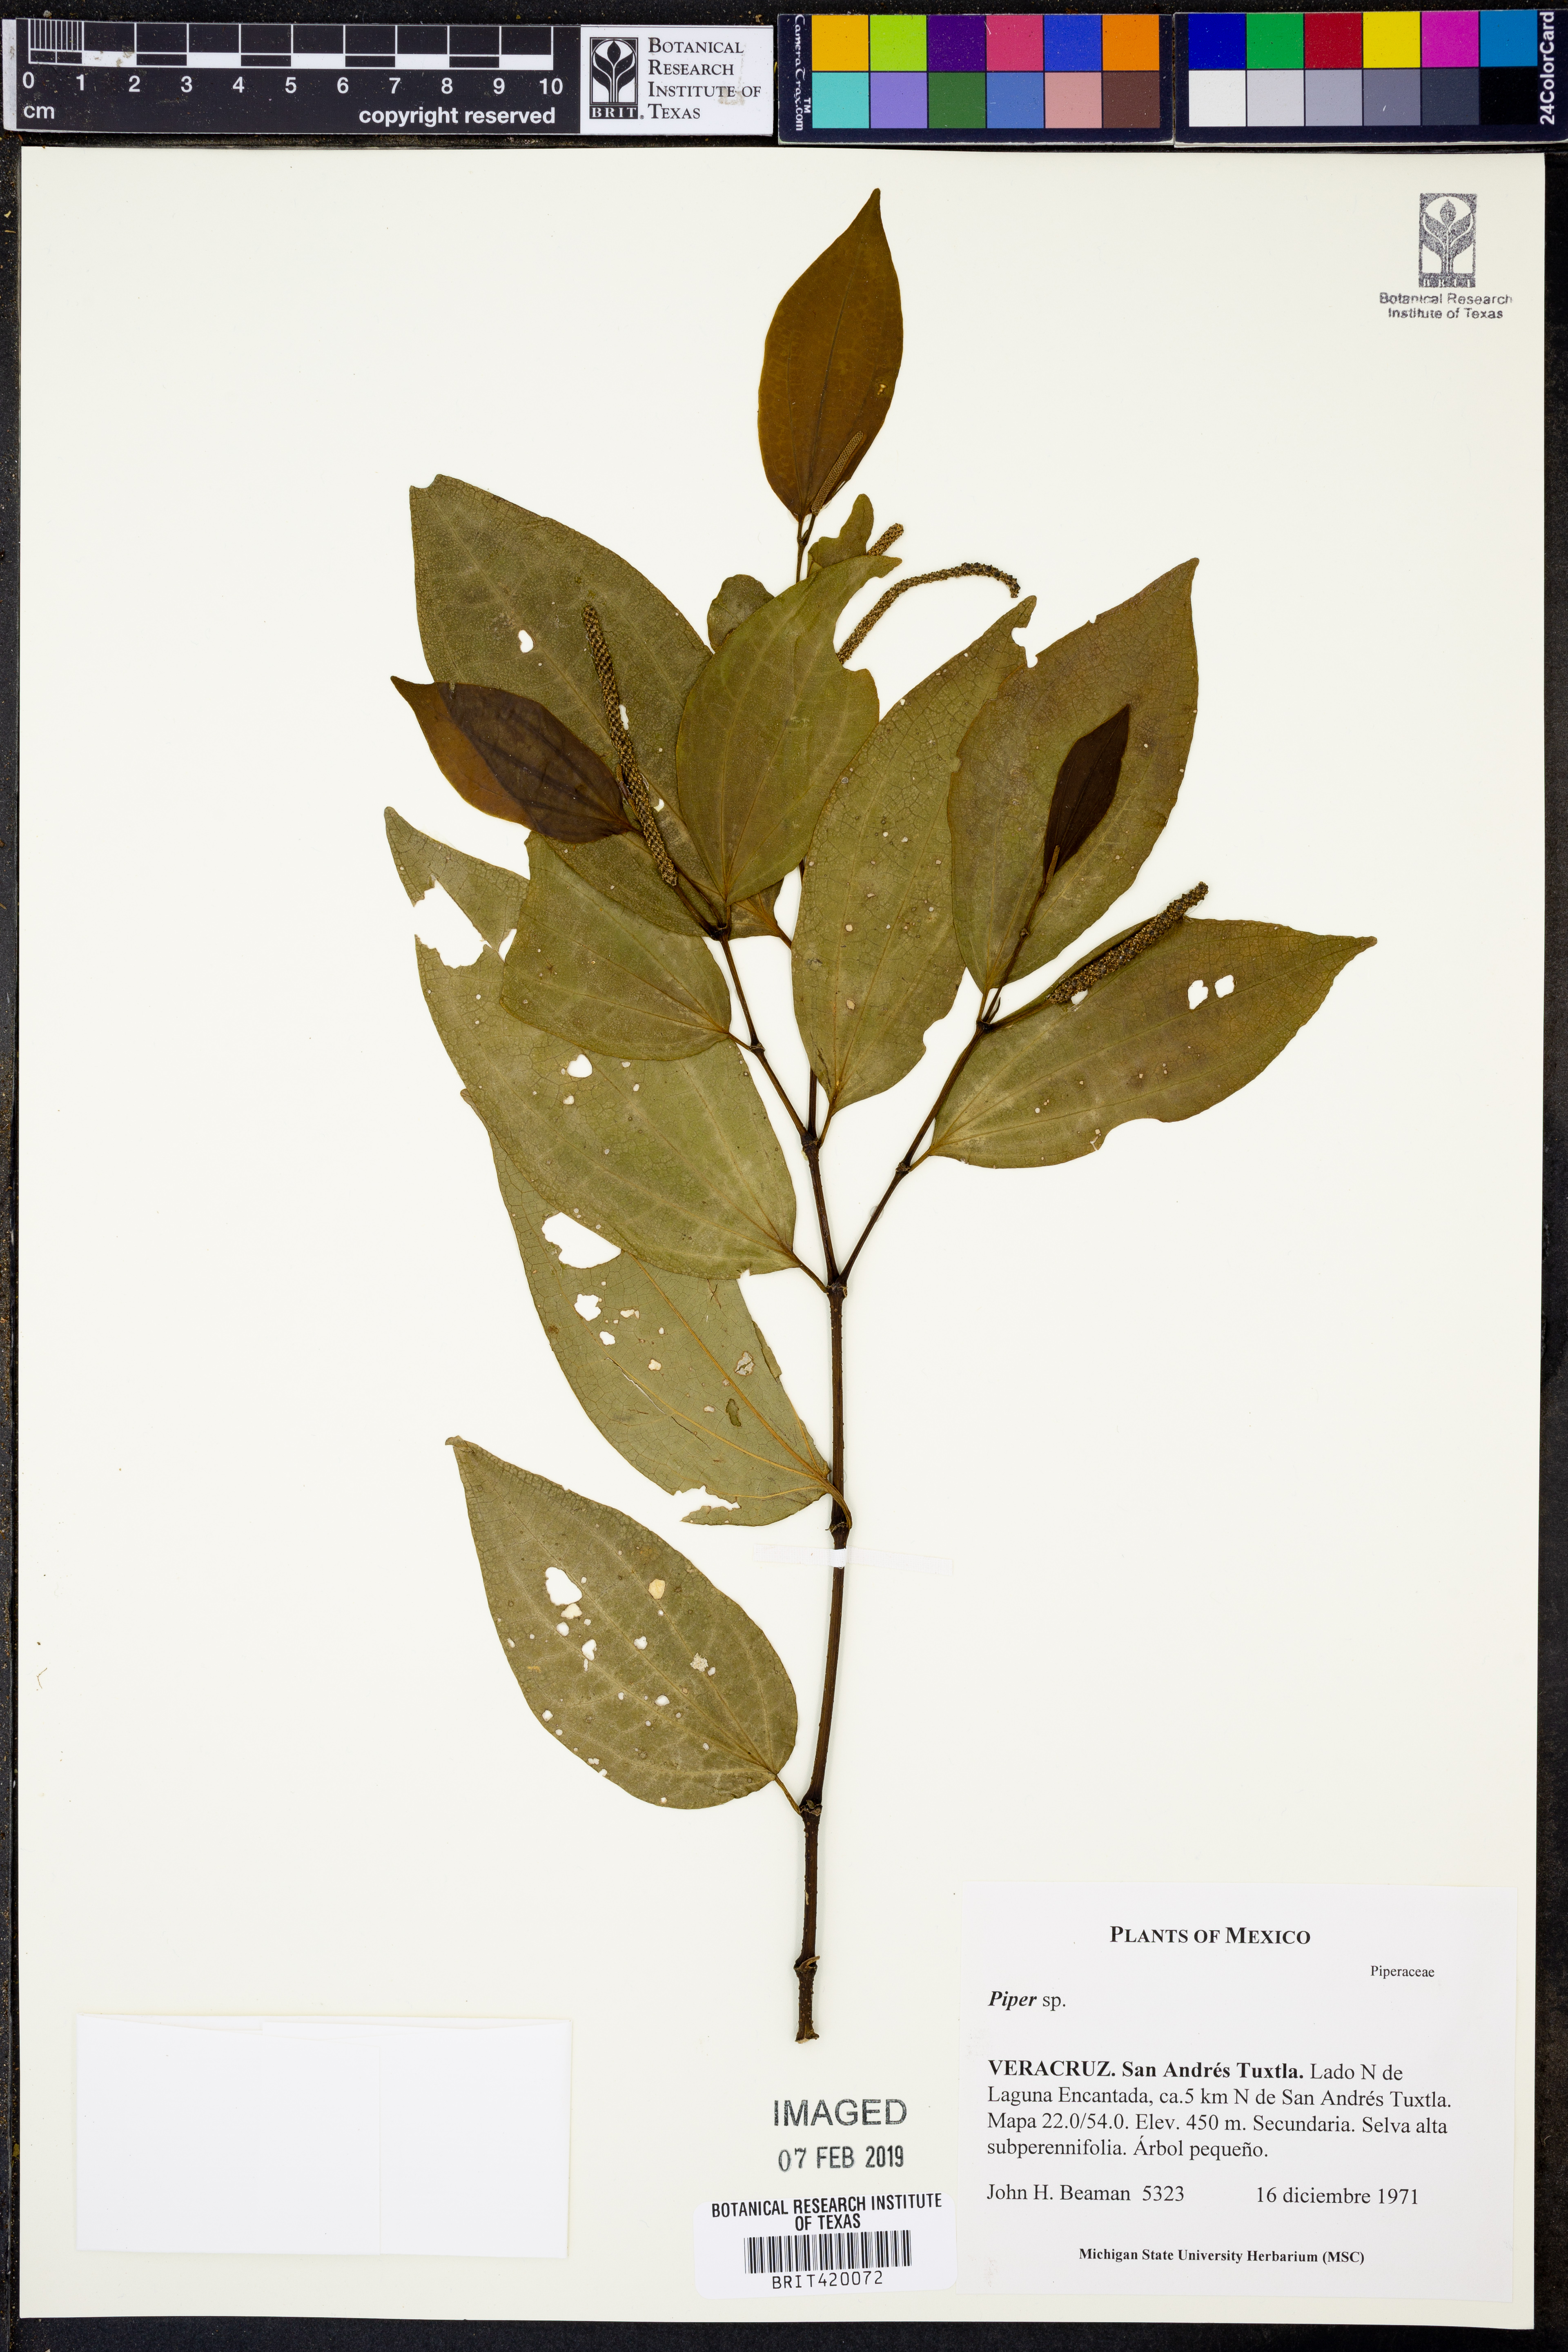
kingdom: Plantae
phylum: Tracheophyta
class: Magnoliopsida
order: Piperales
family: Piperaceae
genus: Piper
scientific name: Piper
